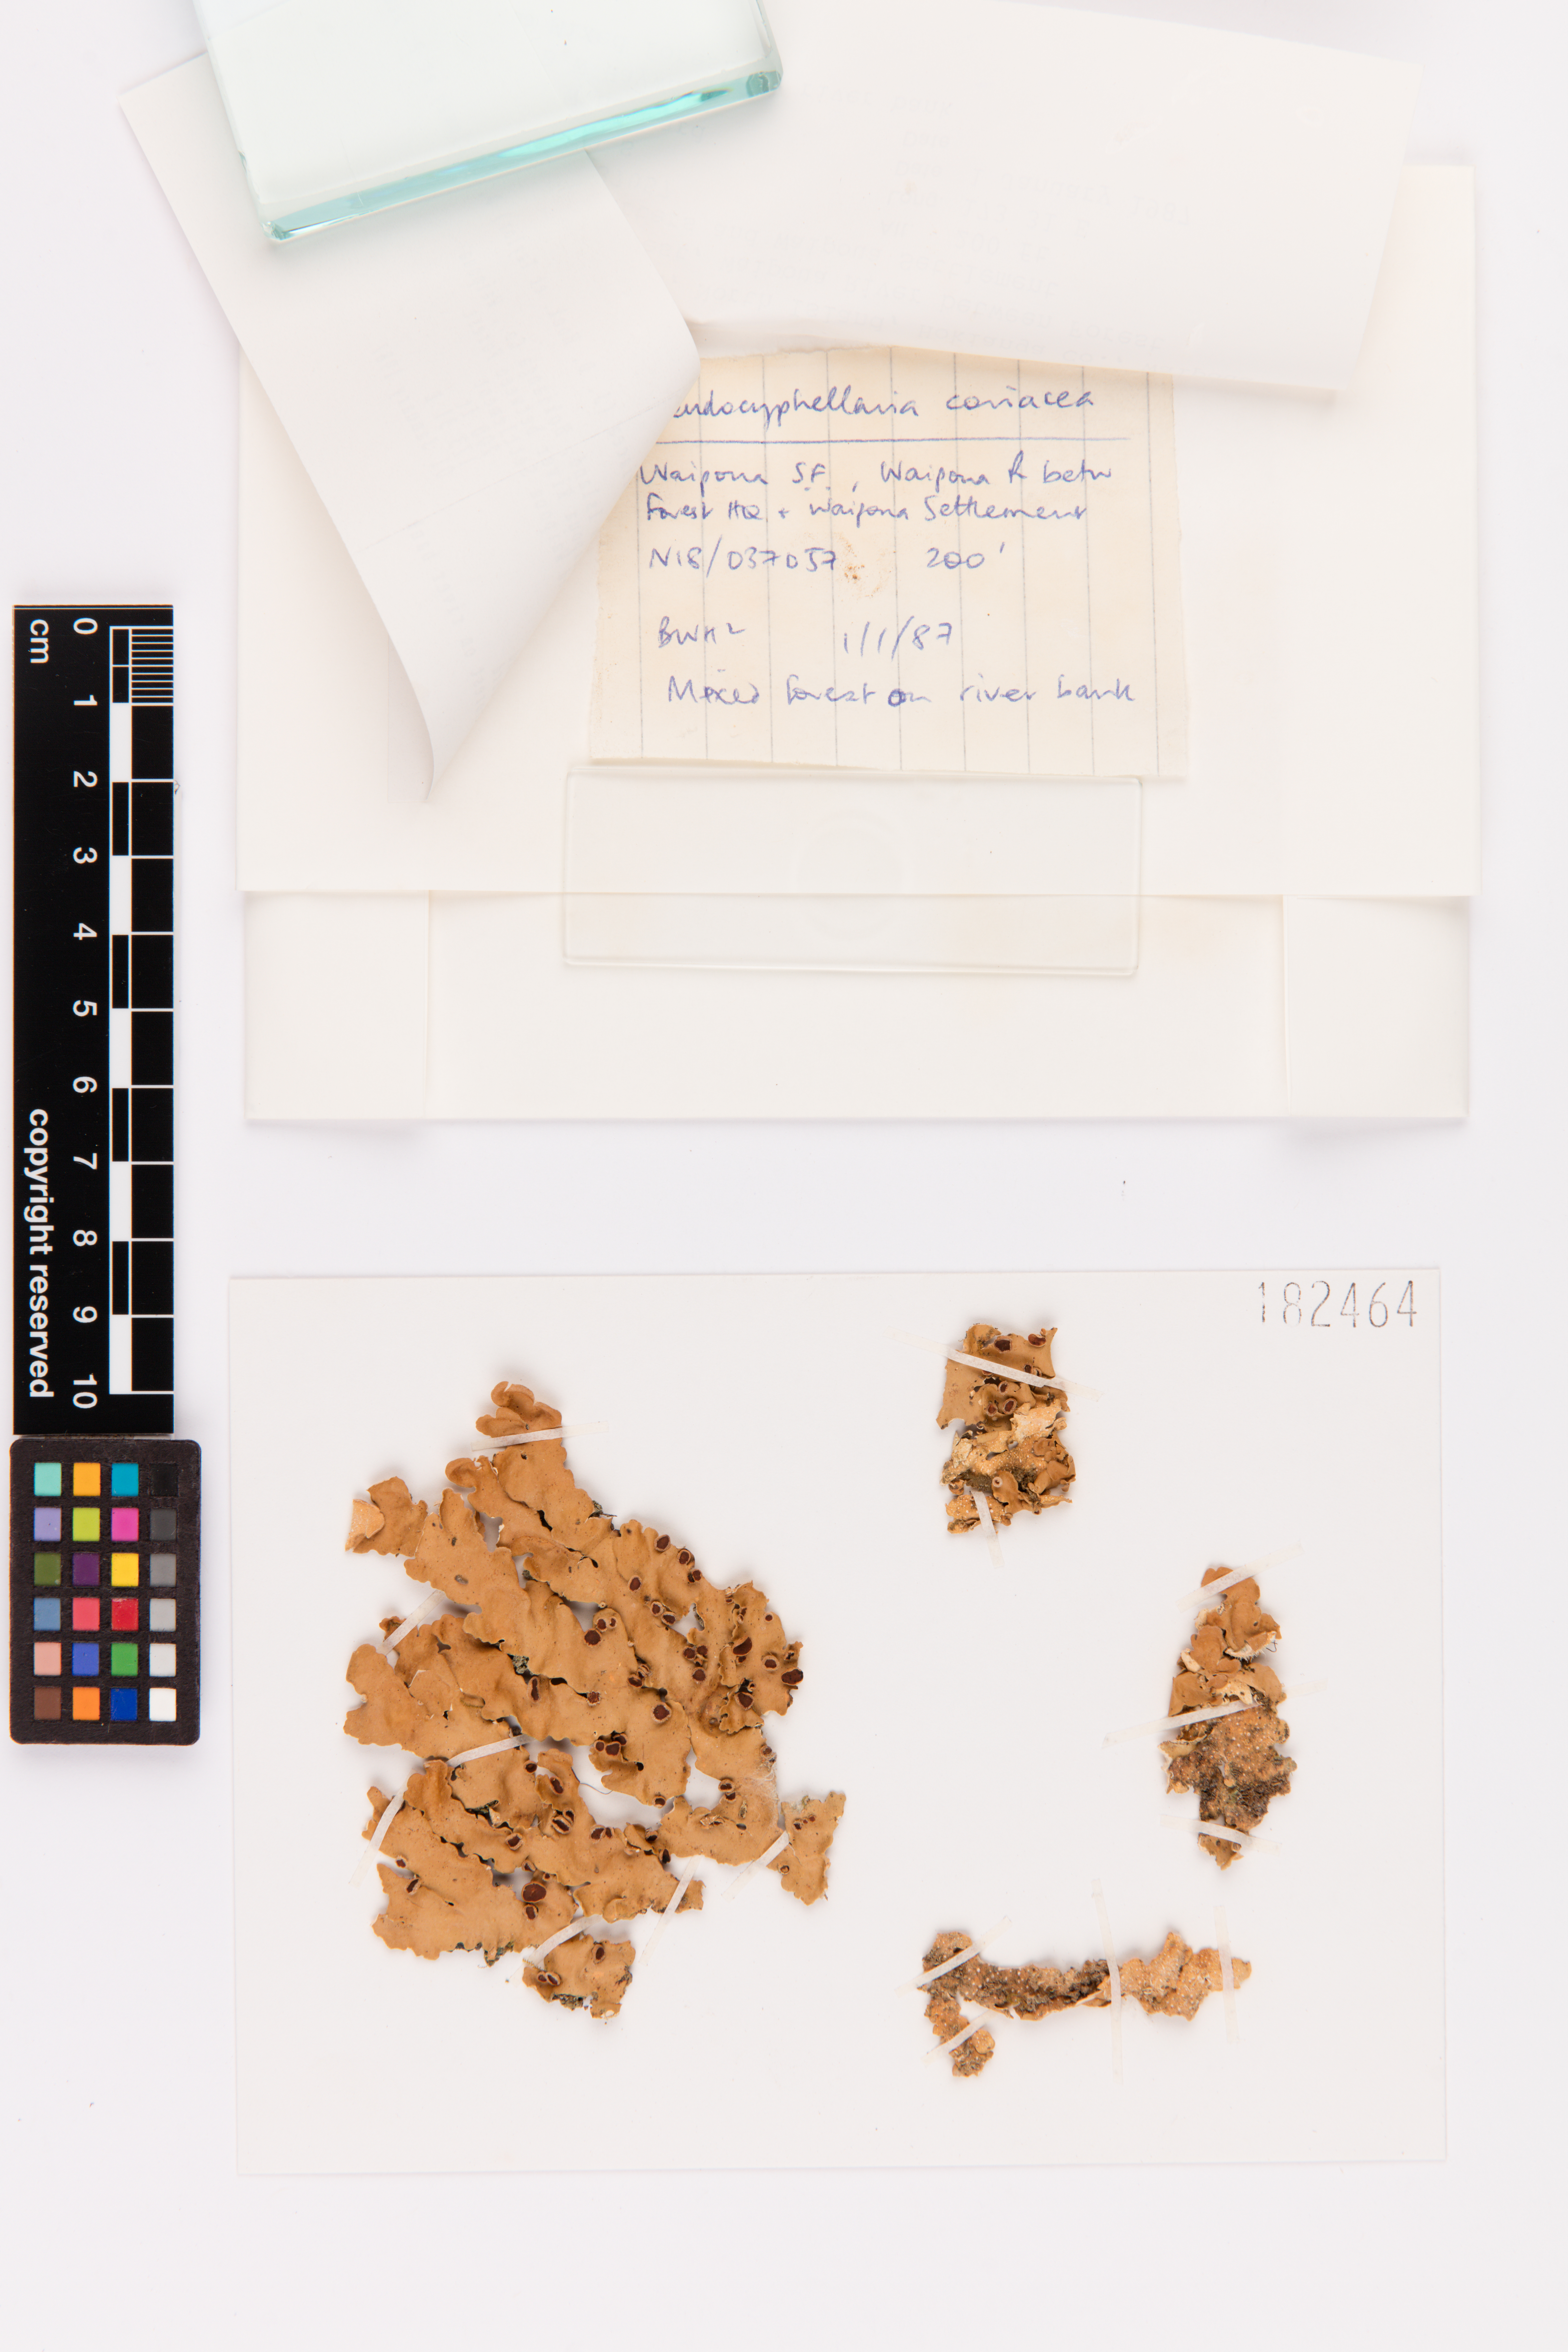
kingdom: Fungi
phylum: Ascomycota
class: Lecanoromycetes
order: Peltigerales
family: Lobariaceae
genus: Pseudocyphellaria
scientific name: Pseudocyphellaria coriacea
